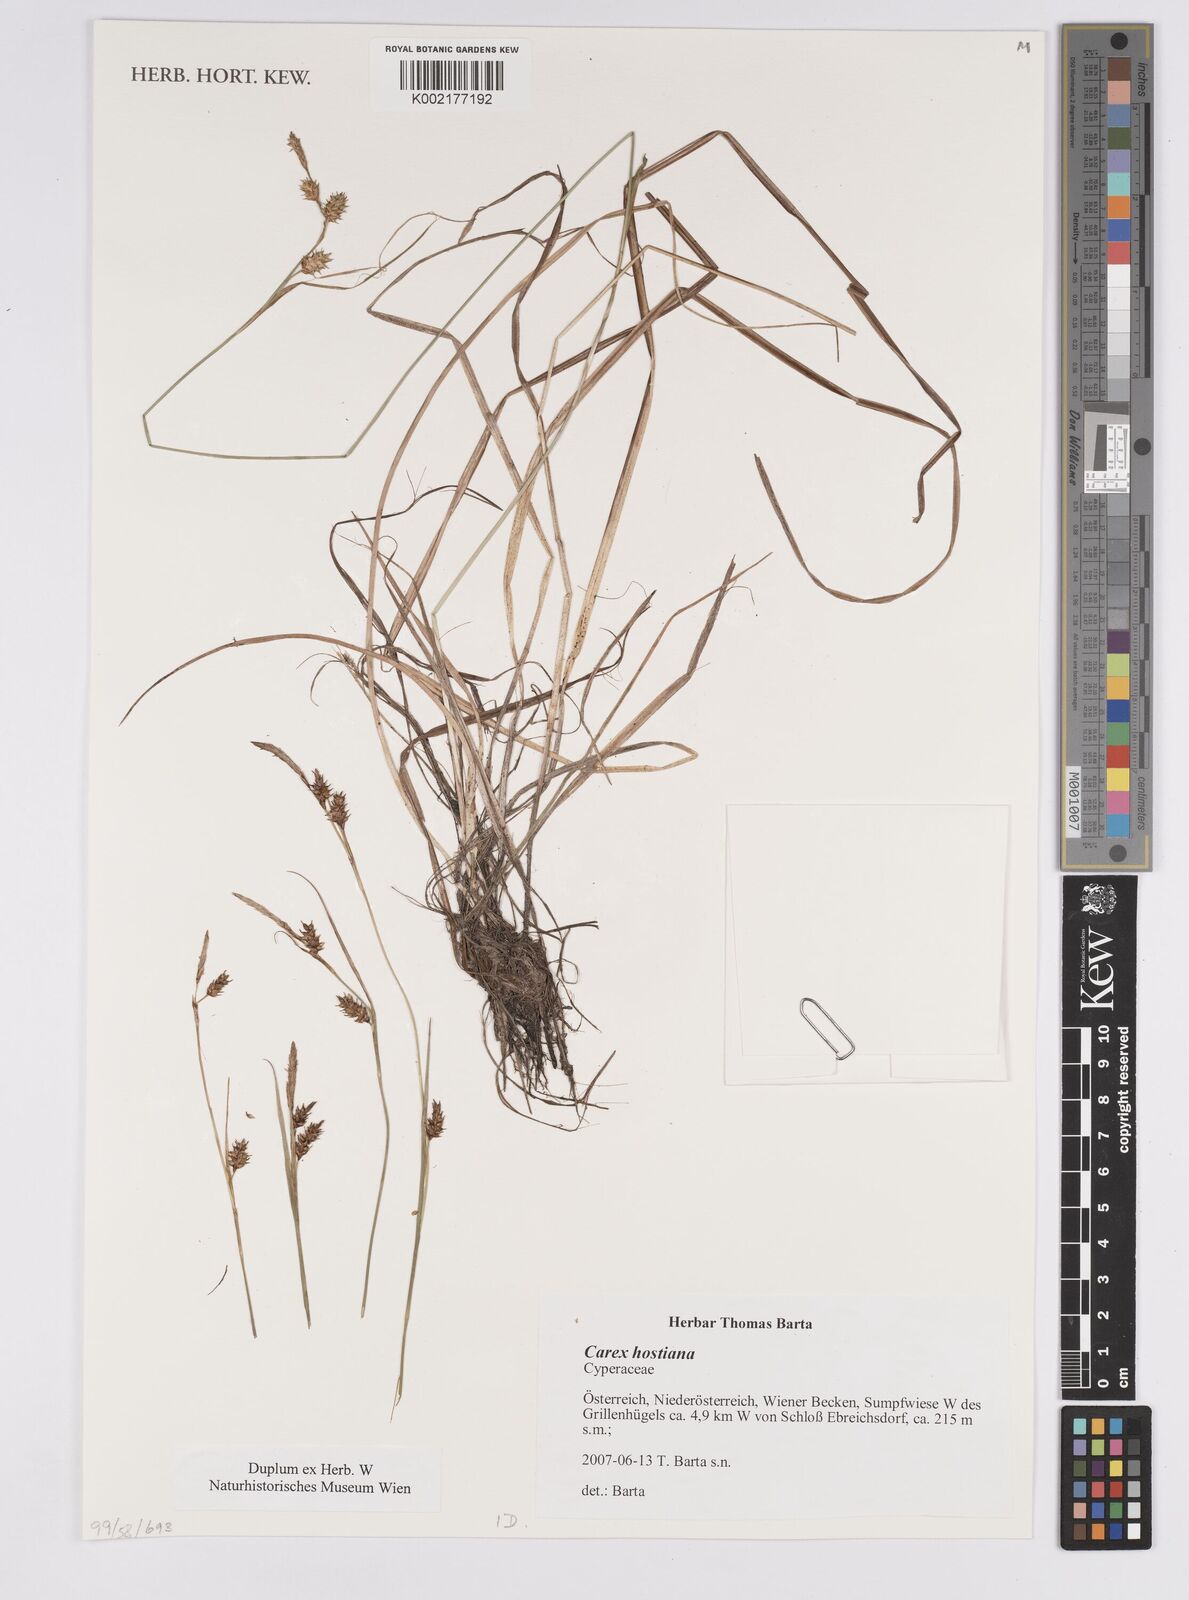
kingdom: Plantae
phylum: Tracheophyta
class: Liliopsida
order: Poales
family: Cyperaceae
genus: Carex
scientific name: Carex hostiana
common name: Tawny sedge
